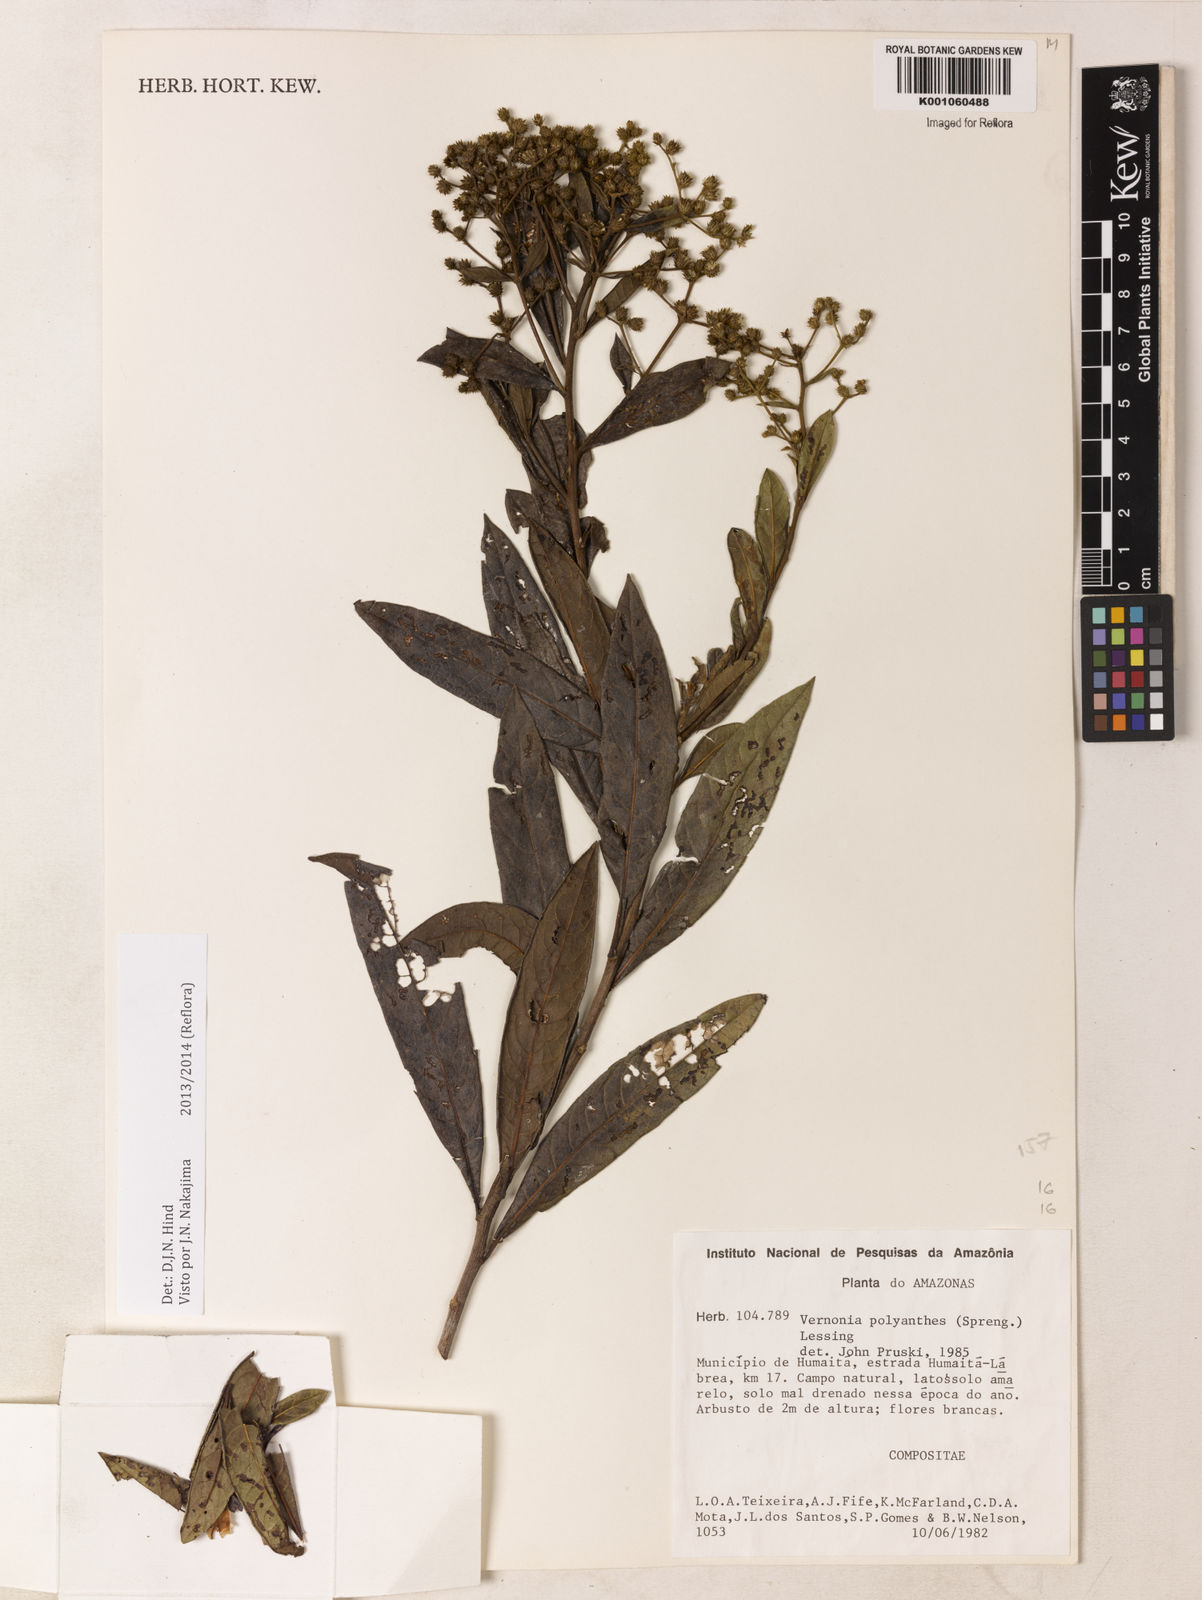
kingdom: Plantae
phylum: Tracheophyta
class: Magnoliopsida
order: Asterales
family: Asteraceae
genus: Vernonanthura
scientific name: Vernonanthura membranacea
